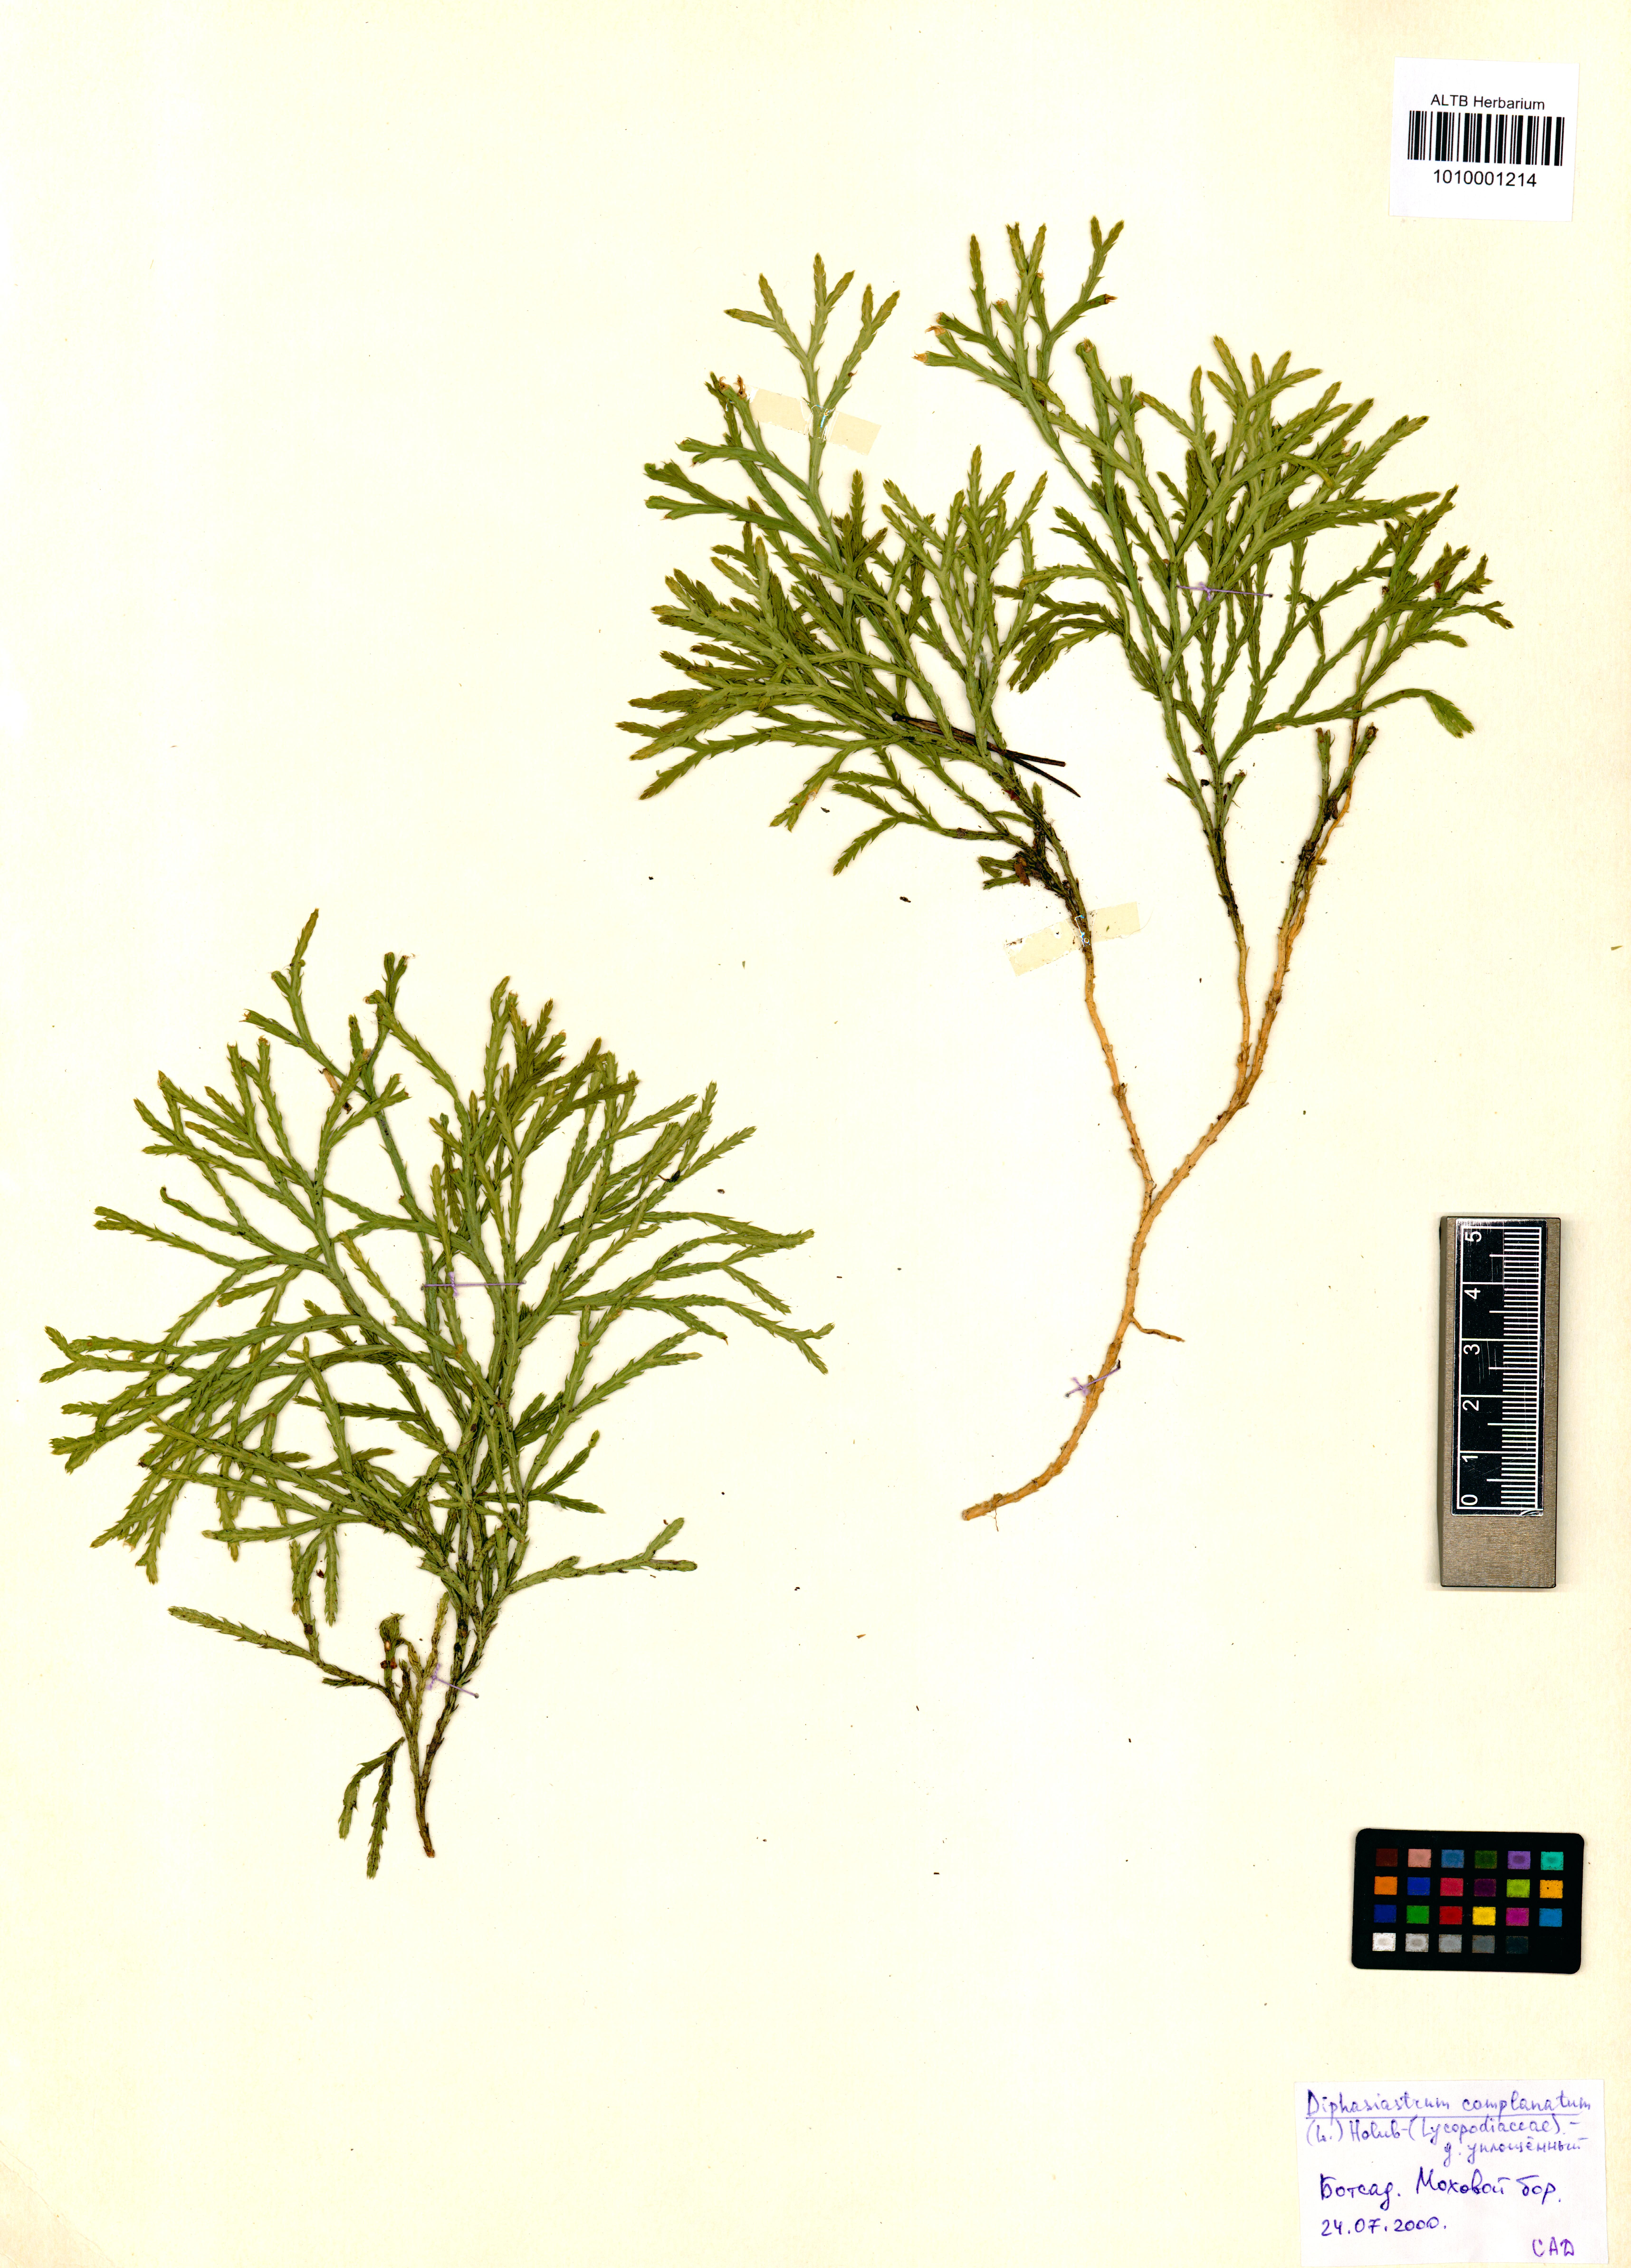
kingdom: Plantae
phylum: Tracheophyta
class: Lycopodiopsida
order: Lycopodiales
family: Lycopodiaceae
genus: Diphasiastrum
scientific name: Diphasiastrum complanatum
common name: Northern running-pine
